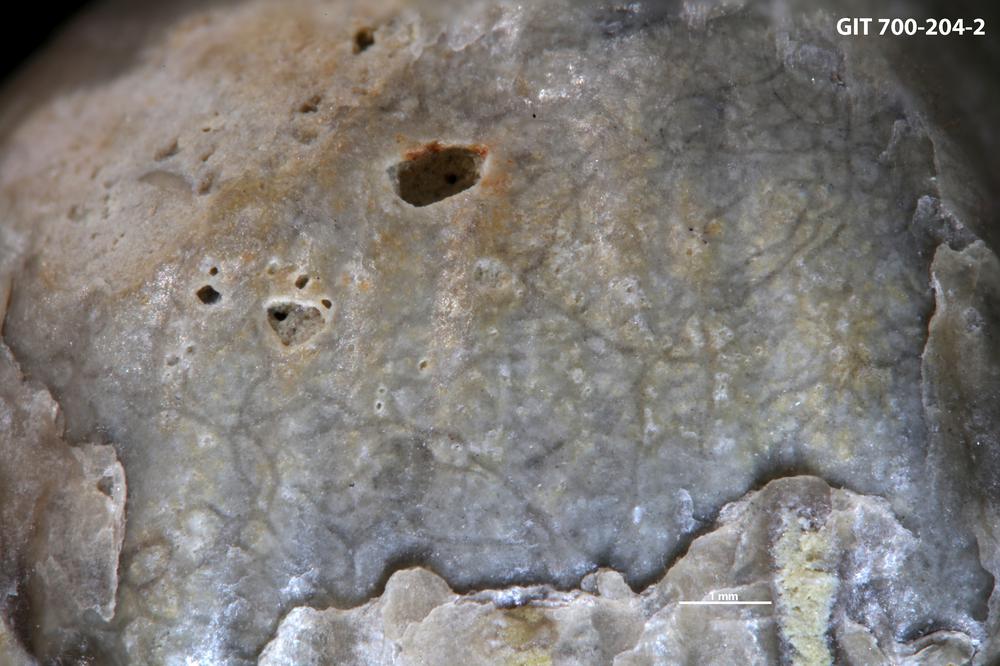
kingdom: Animalia
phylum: Annelida
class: Polychaeta
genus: Arachnostega
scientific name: Arachnostega gastrochaenae
